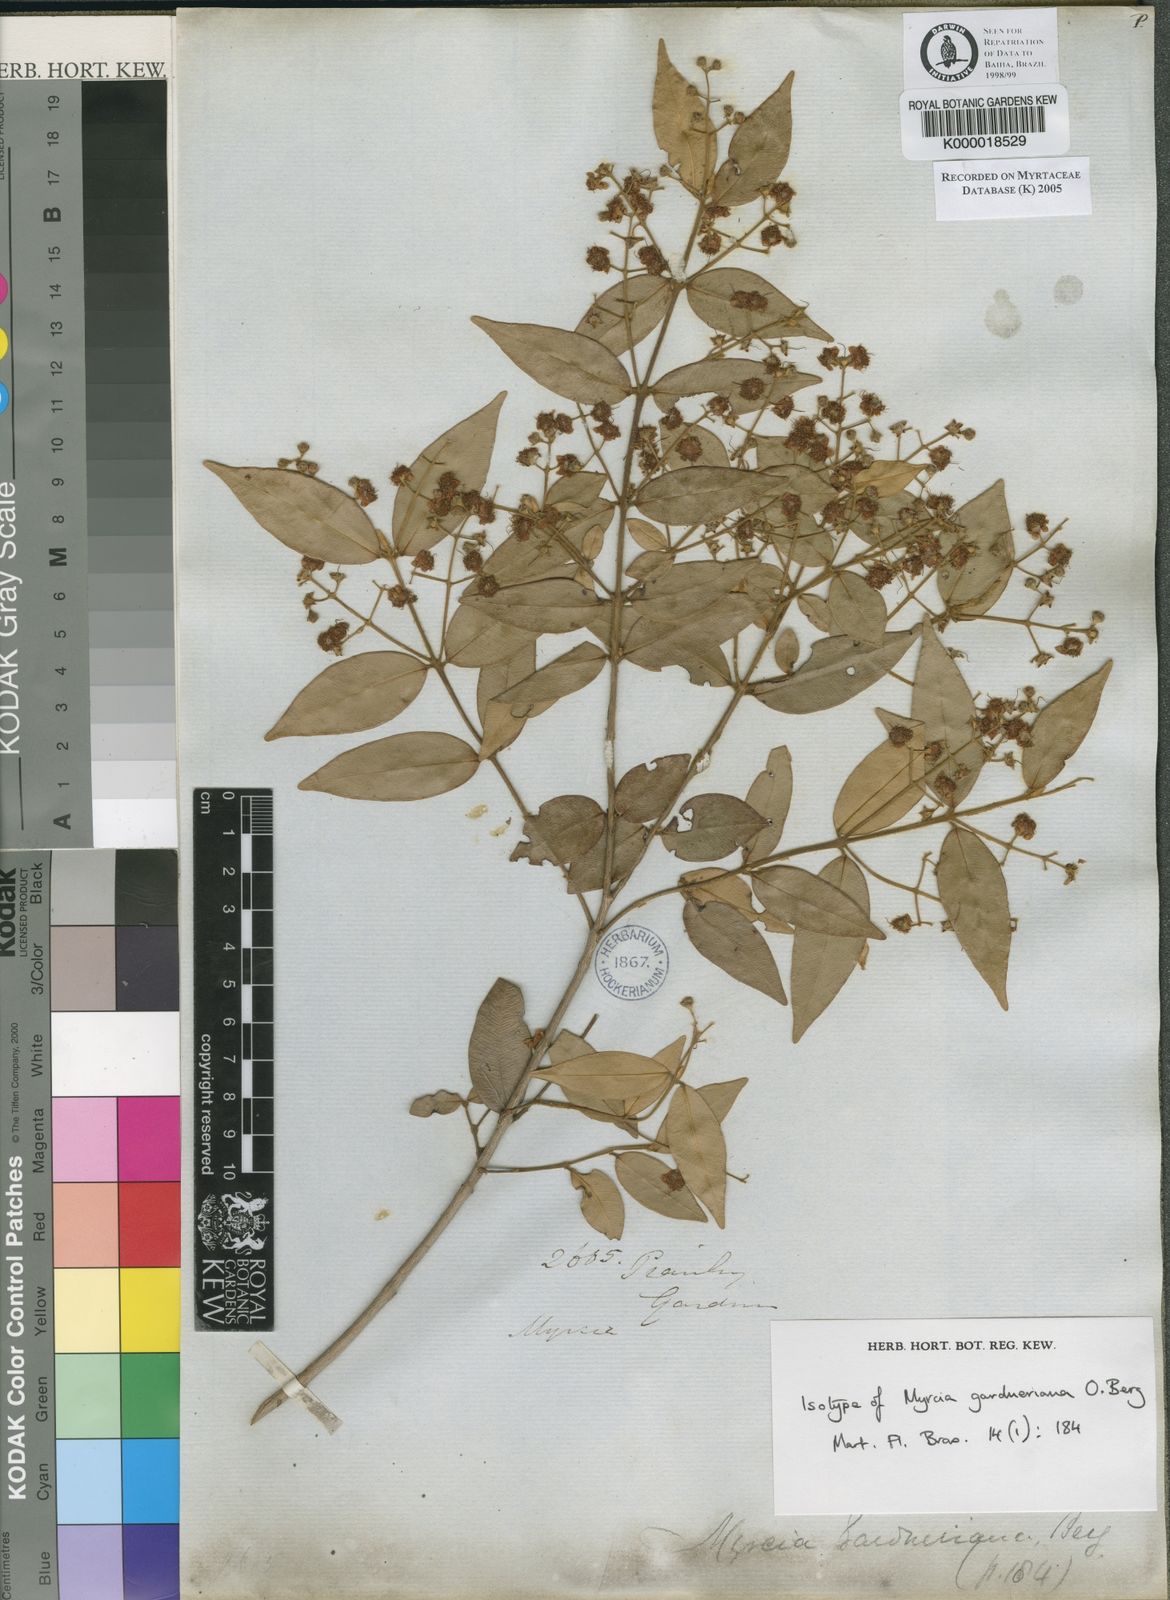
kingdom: Plantae
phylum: Tracheophyta
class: Magnoliopsida
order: Myrtales
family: Myrtaceae
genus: Myrcia
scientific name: Myrcia splendens
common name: Surinam cherry
